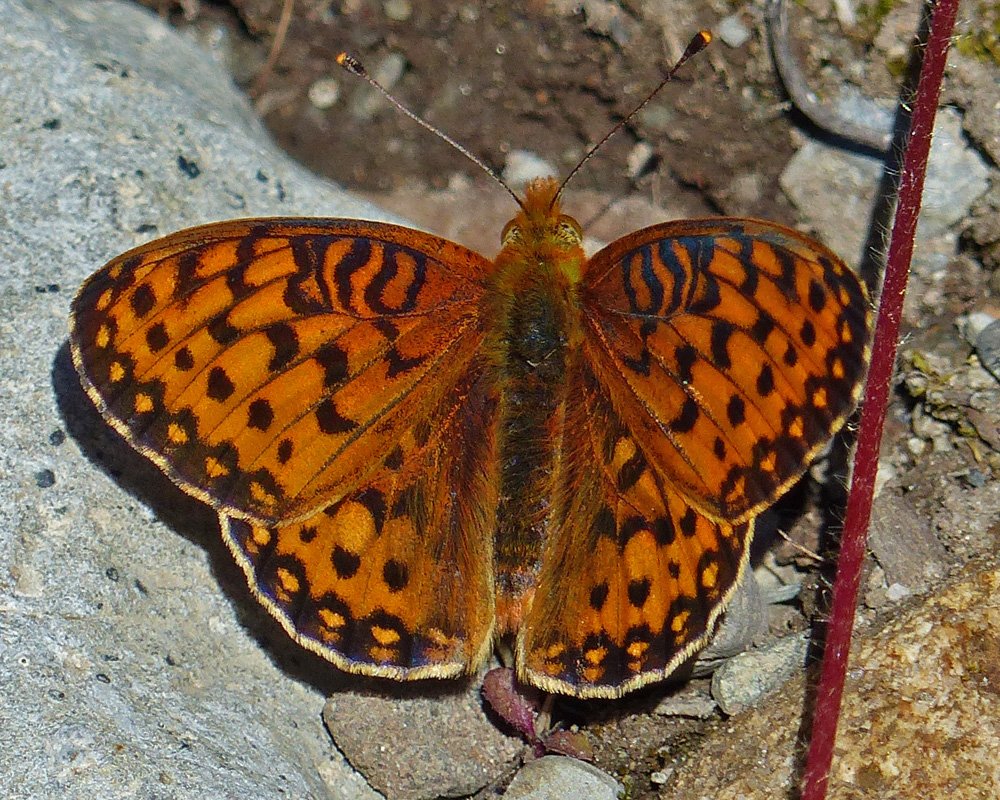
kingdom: Animalia
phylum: Arthropoda
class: Insecta
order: Lepidoptera
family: Nymphalidae
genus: Speyeria
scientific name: Speyeria hydaspe
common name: Hydaspe Fritillary
